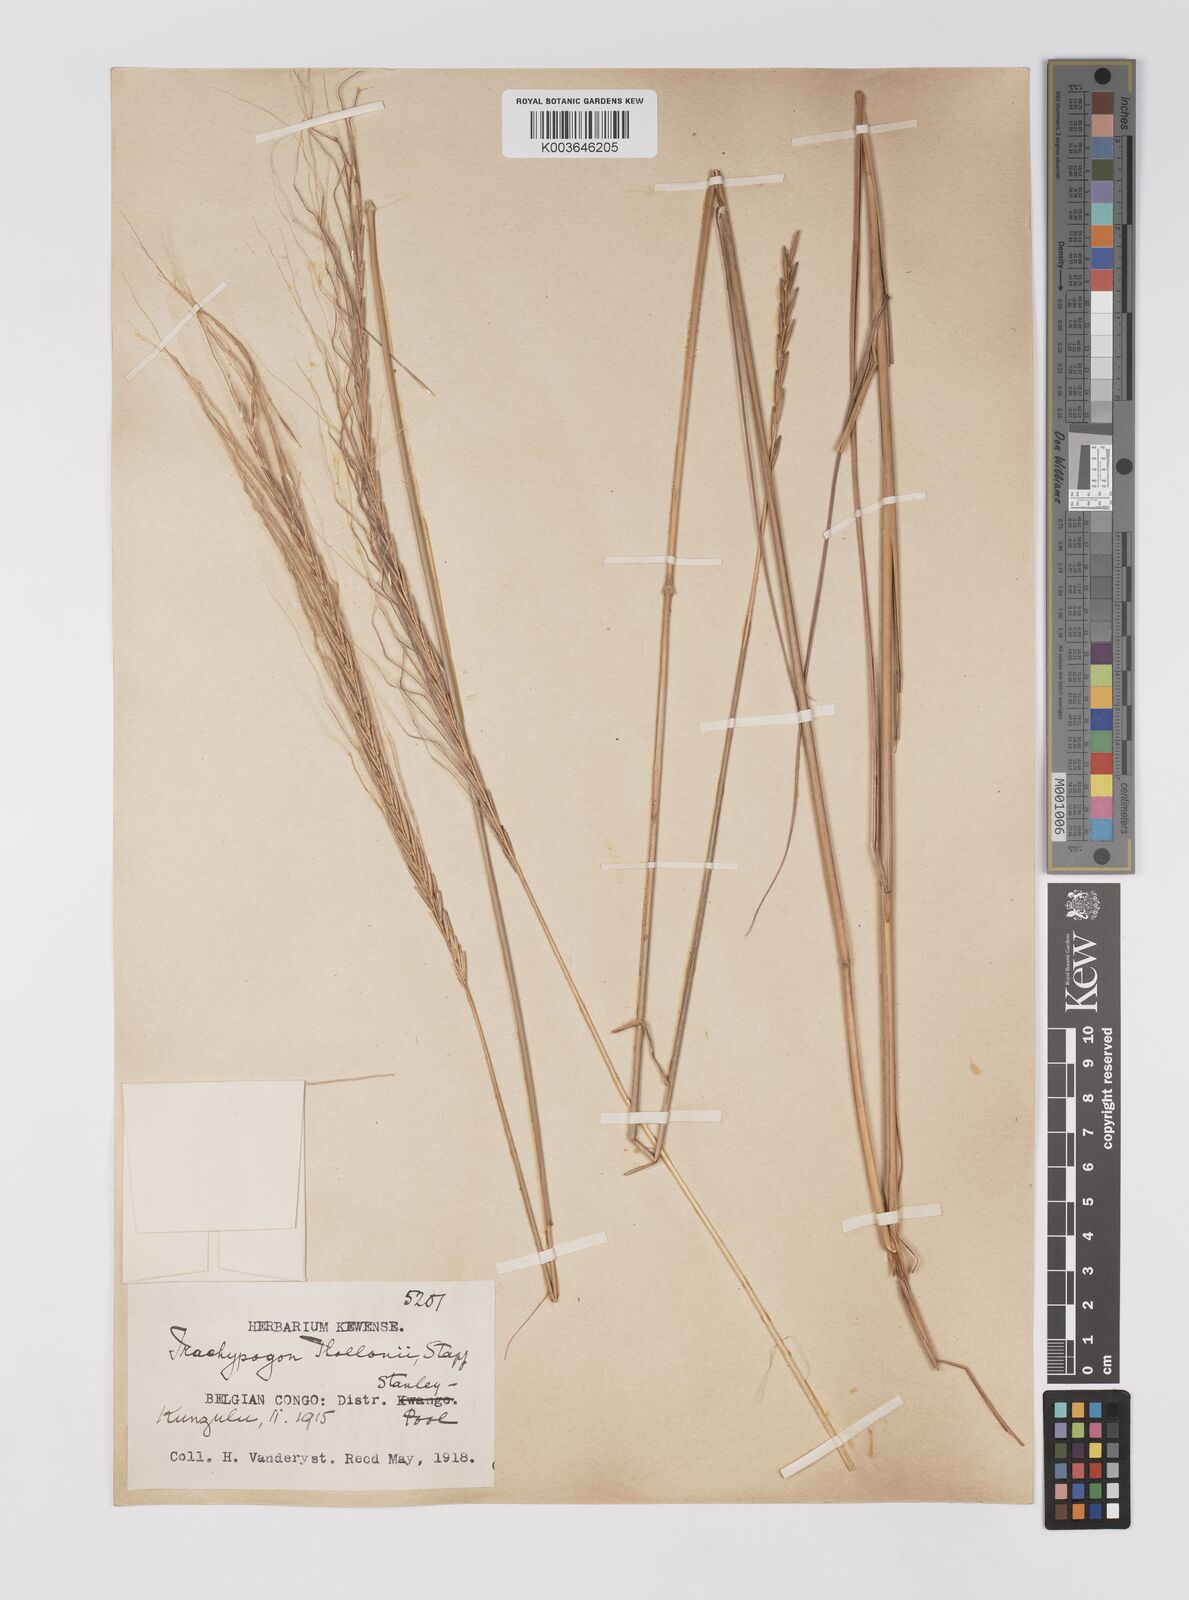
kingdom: Plantae
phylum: Tracheophyta
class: Liliopsida
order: Poales
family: Poaceae
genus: Trachypogon
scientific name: Trachypogon spicatus
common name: Crinkle-awn
